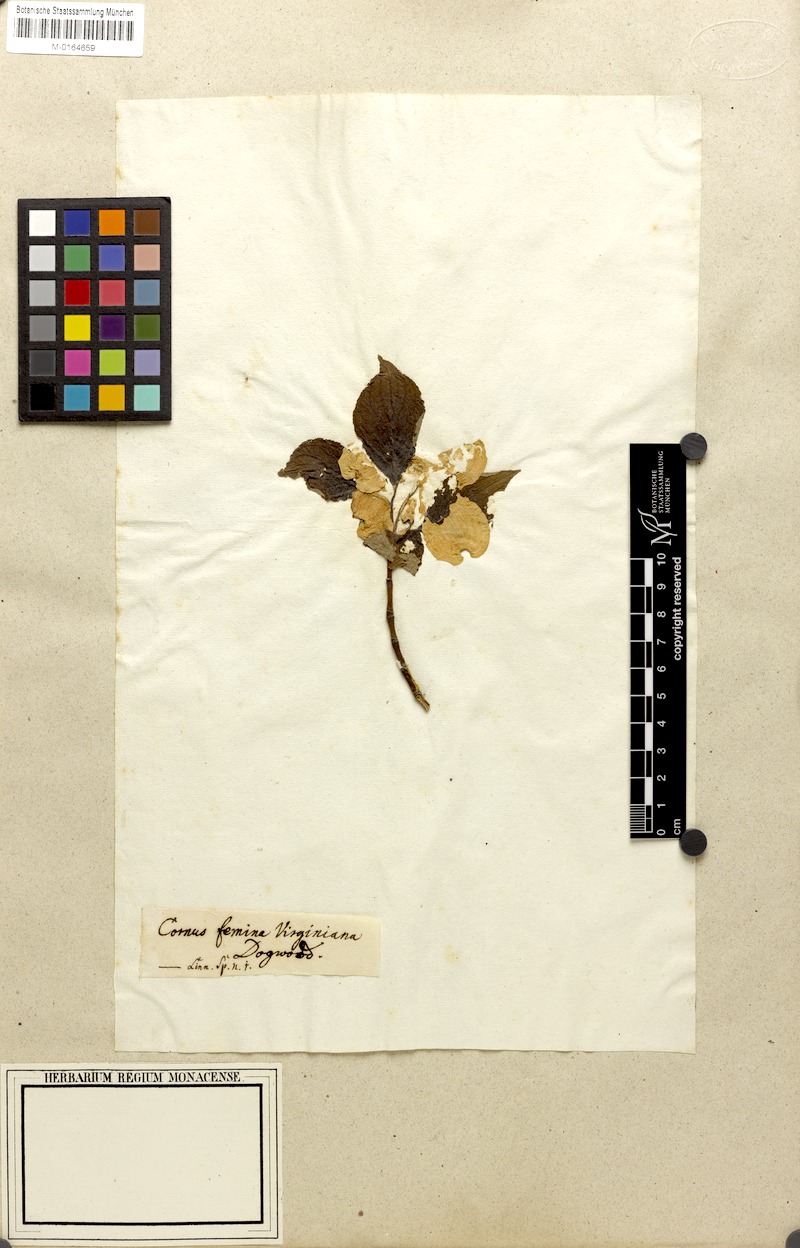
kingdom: Plantae
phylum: Tracheophyta
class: Magnoliopsida
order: Cornales
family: Cornaceae
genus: Cornus
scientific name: Cornus florida
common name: Flowering dogwood
